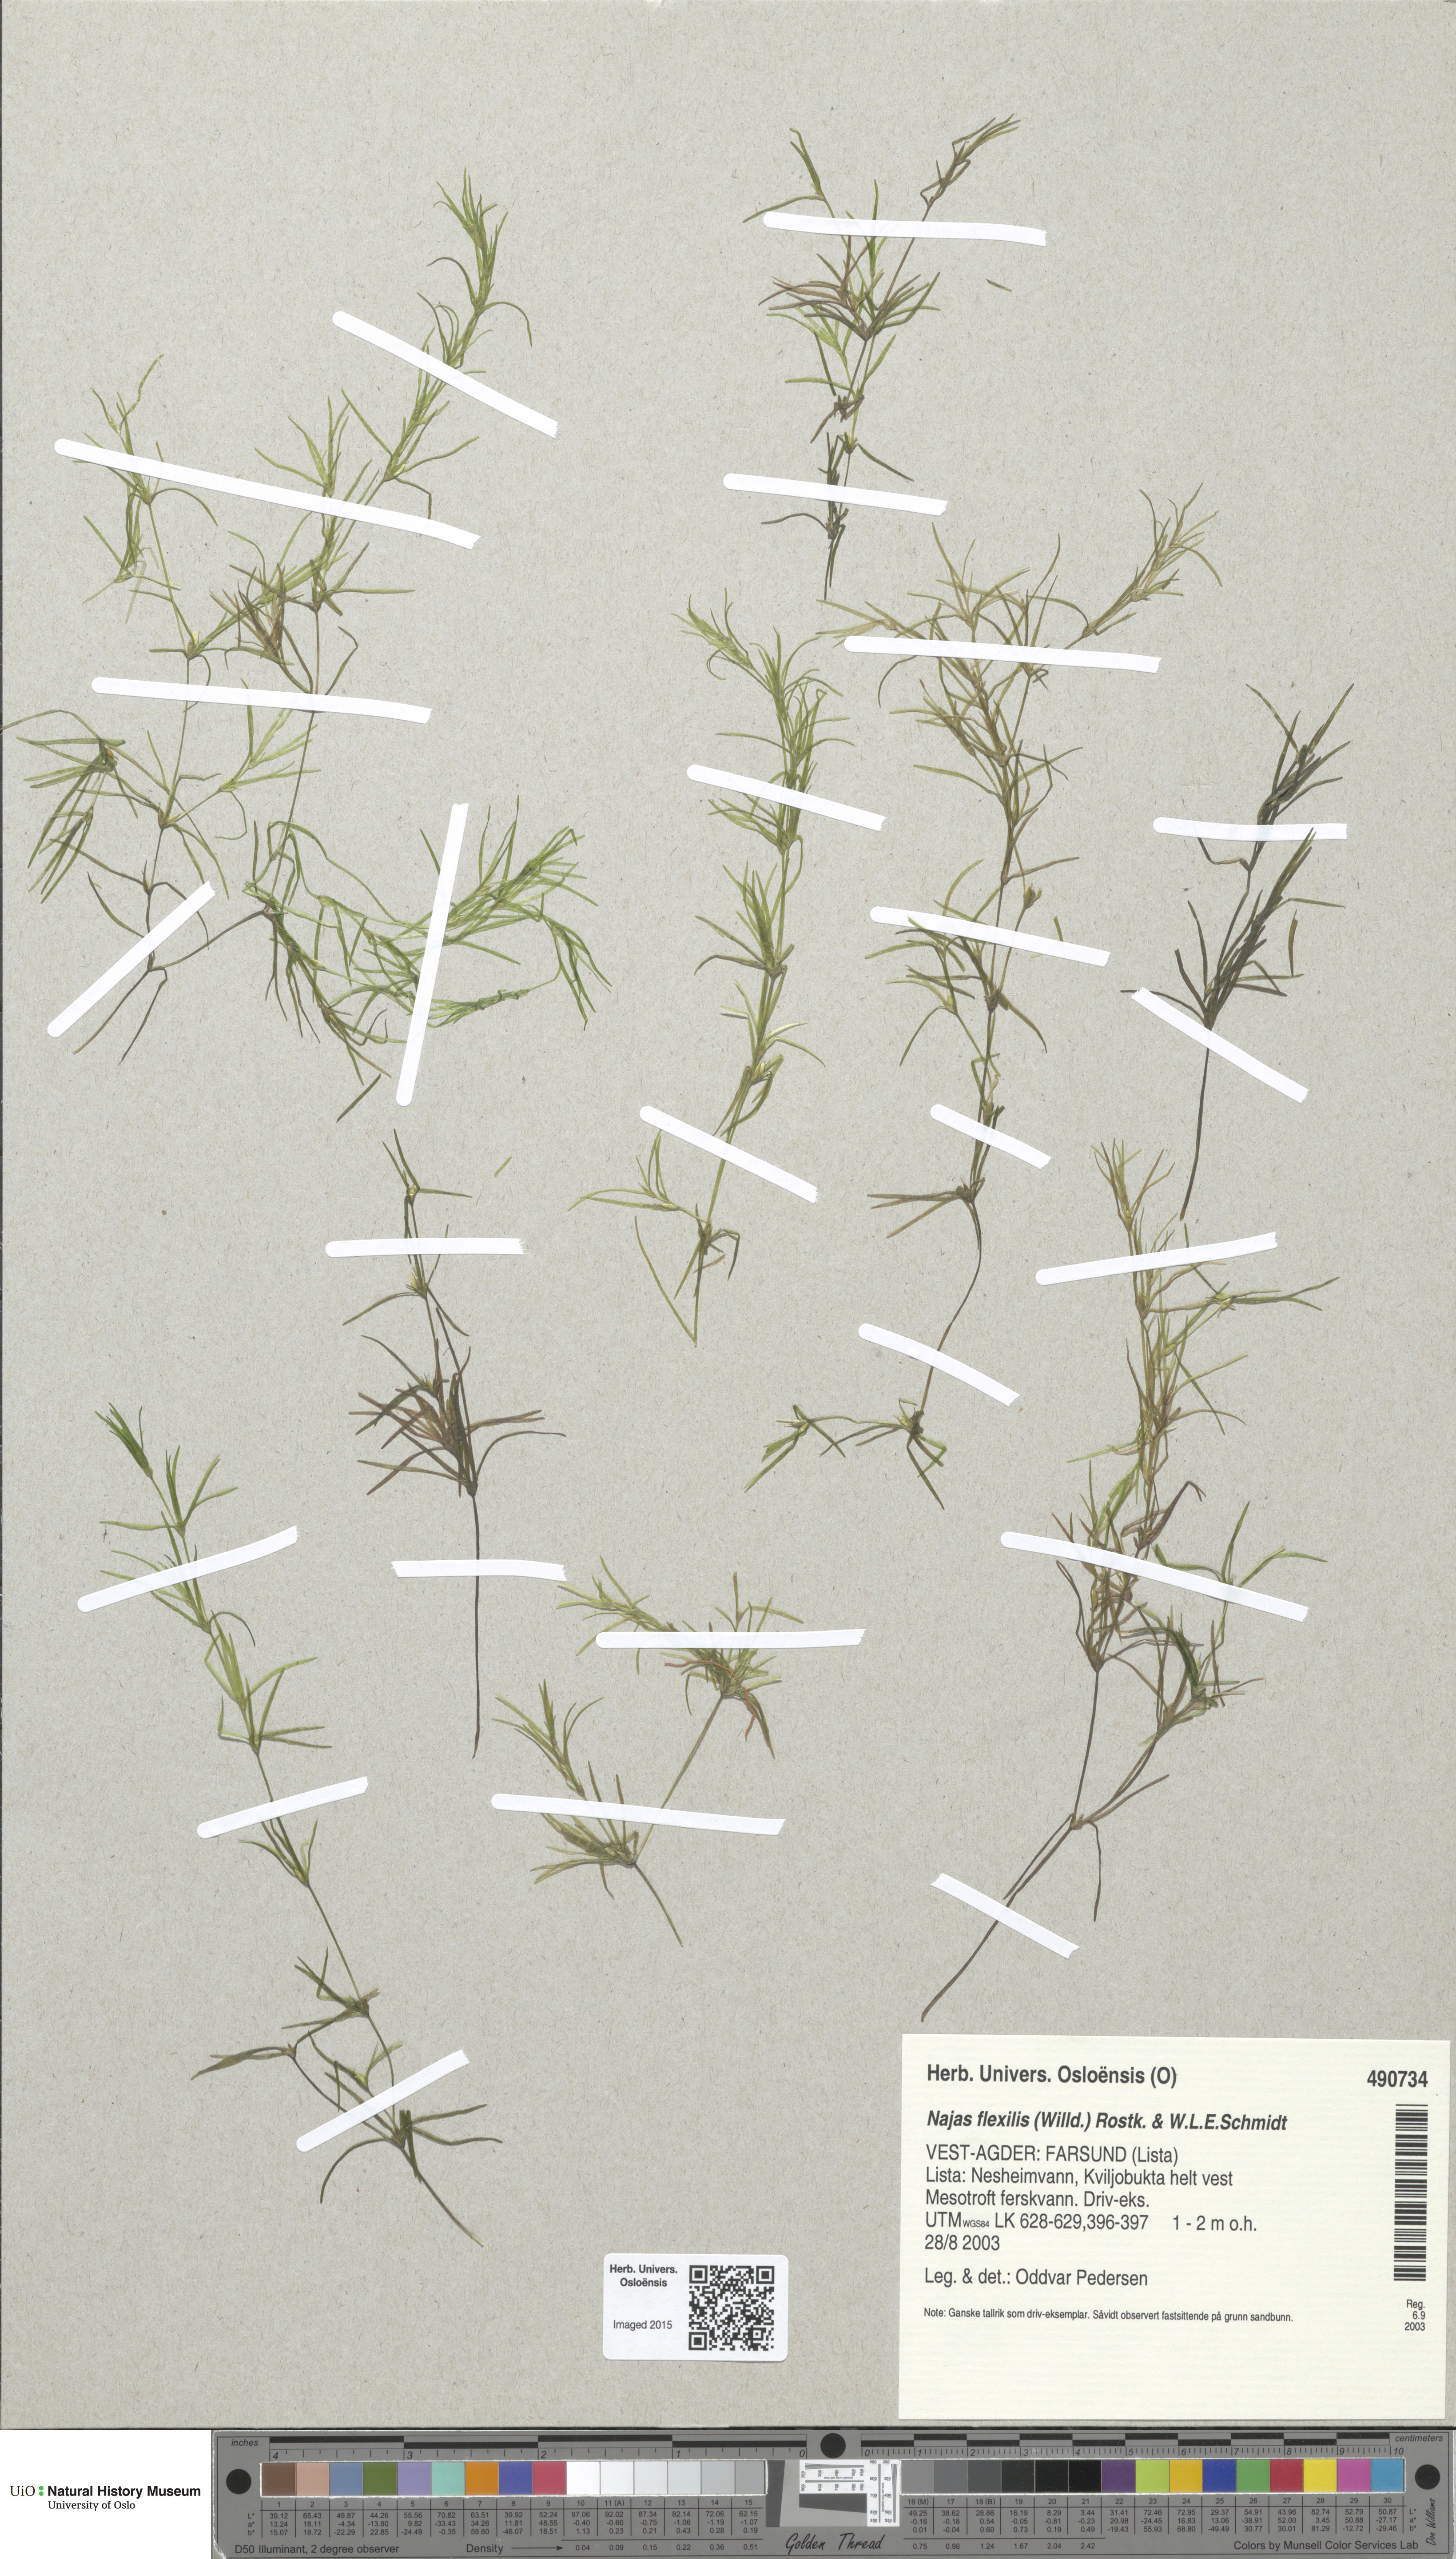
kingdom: Plantae
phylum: Tracheophyta
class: Liliopsida
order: Alismatales
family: Hydrocharitaceae
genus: Najas
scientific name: Najas flexilis
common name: Slender naiad
